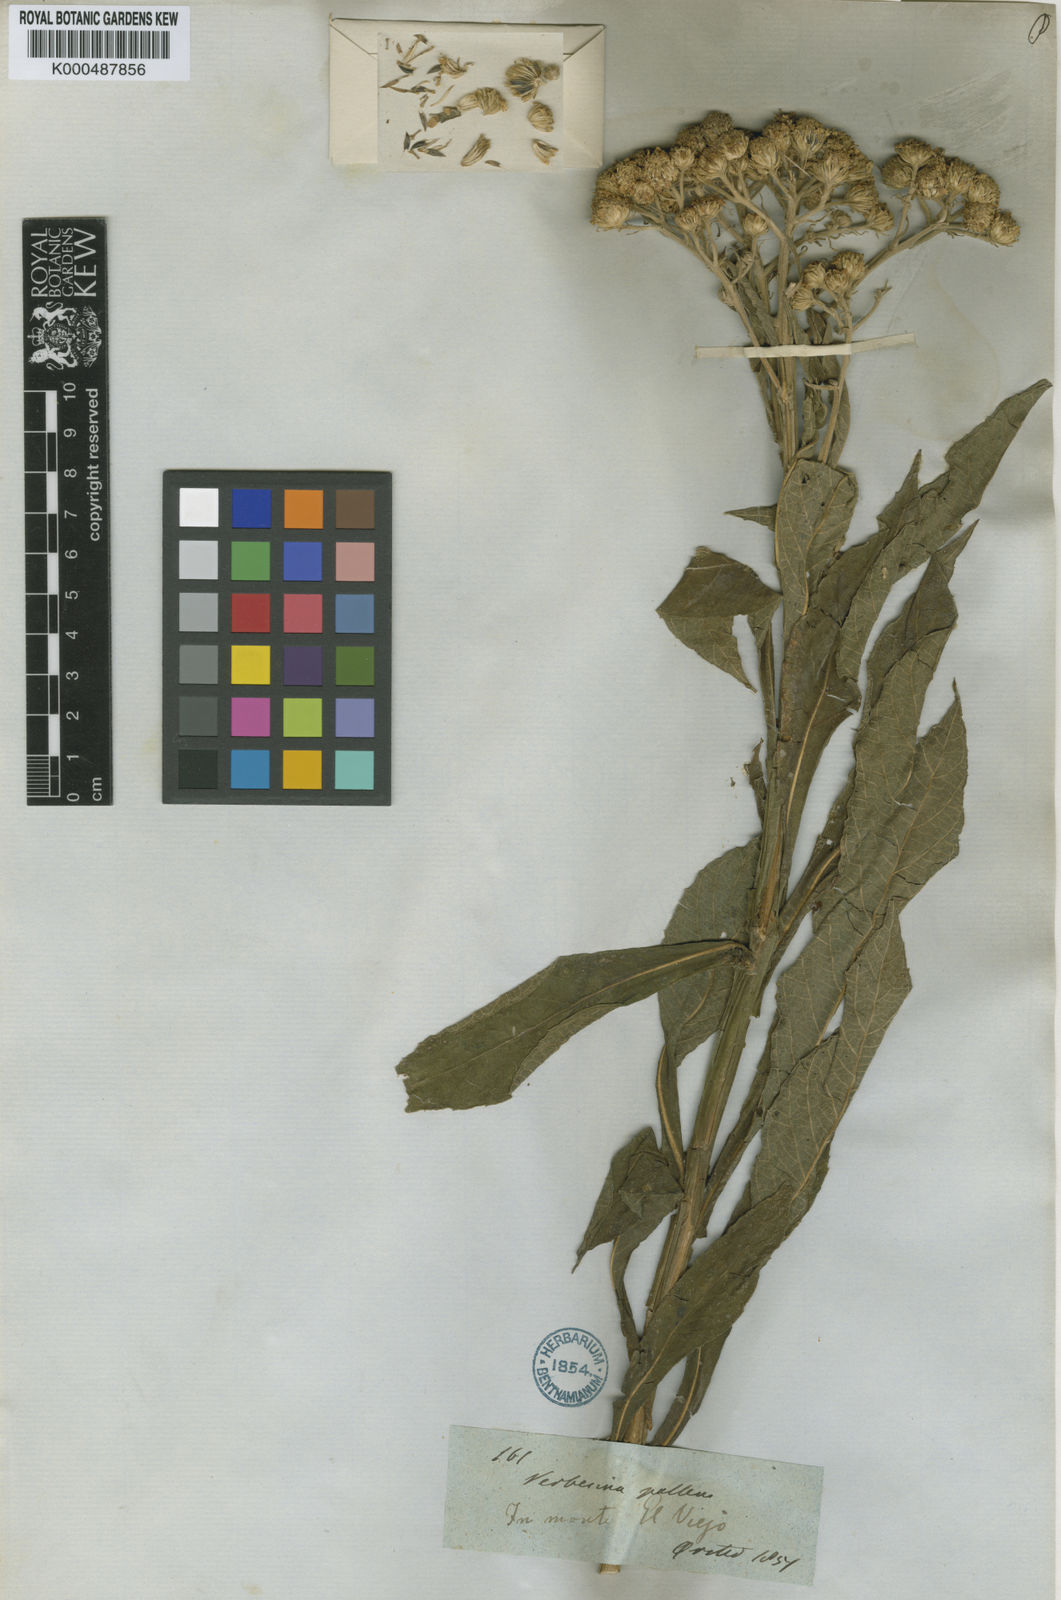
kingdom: Plantae
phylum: Tracheophyta
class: Magnoliopsida
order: Asterales
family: Asteraceae
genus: Verbesina
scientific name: Verbesina pallens
